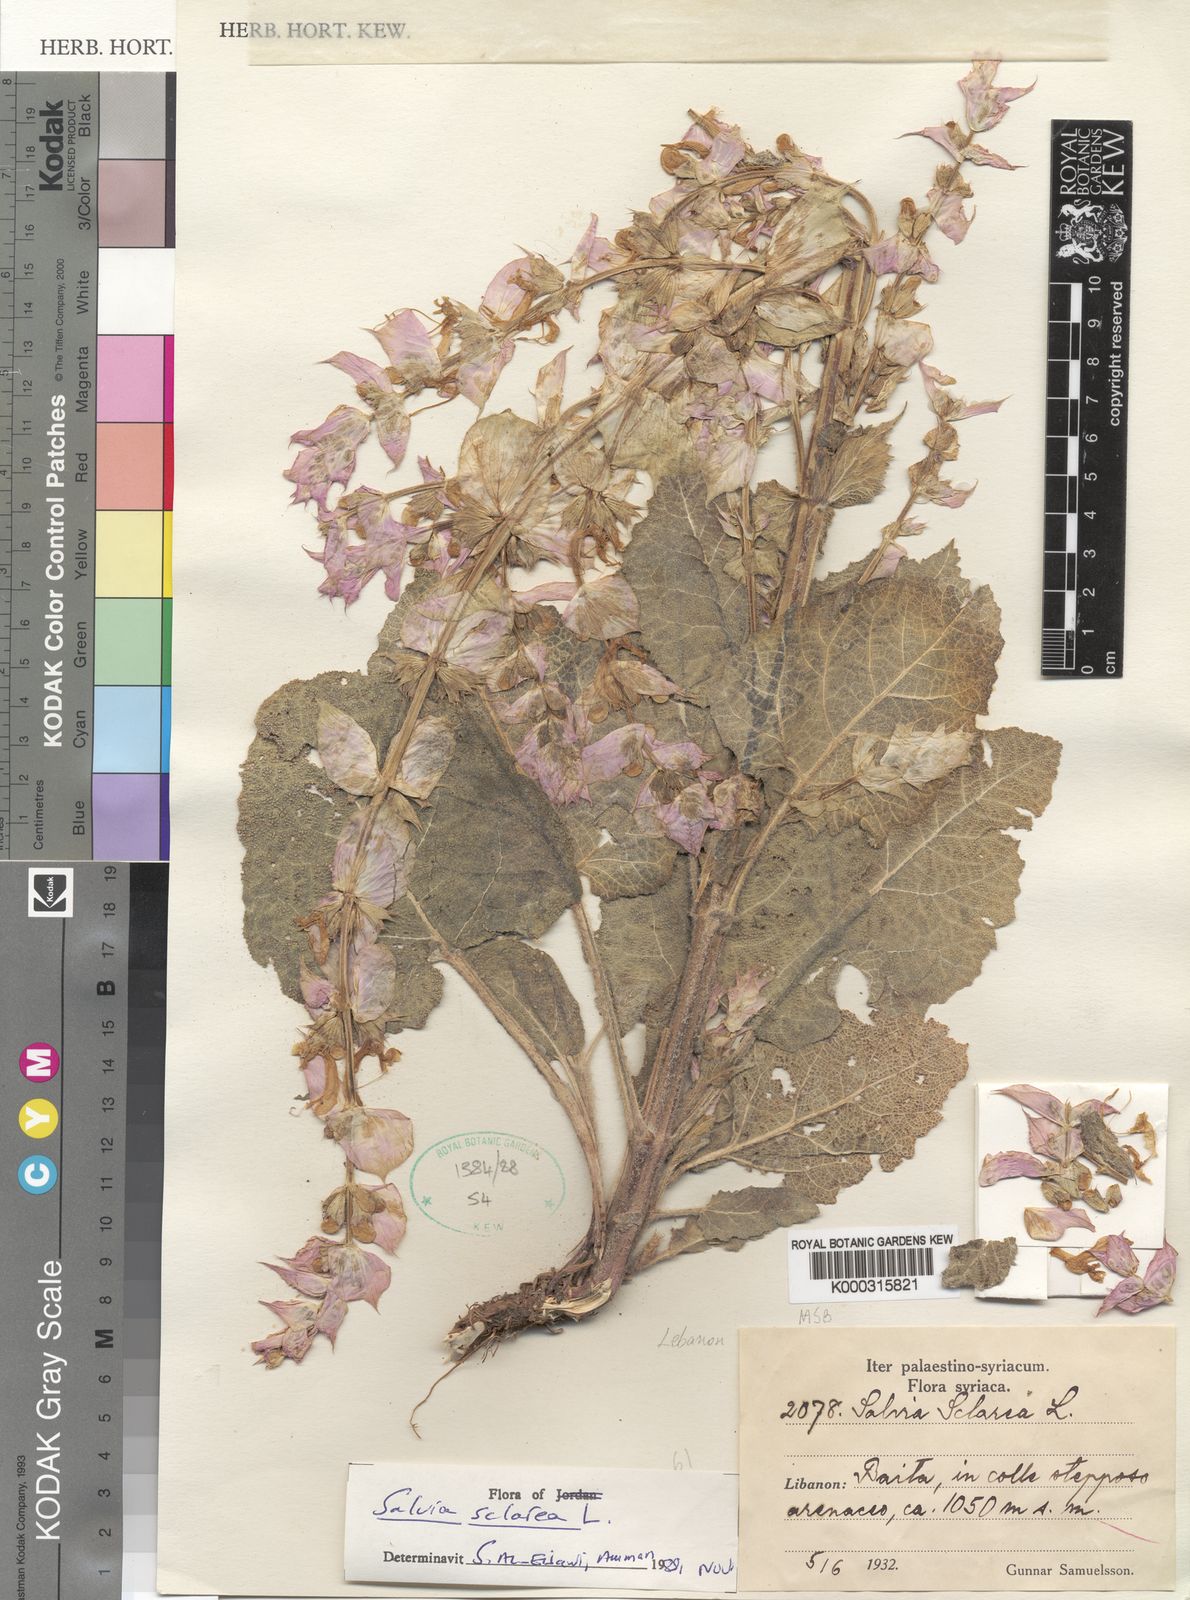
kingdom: Plantae
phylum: Tracheophyta
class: Magnoliopsida
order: Lamiales
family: Lamiaceae
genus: Salvia
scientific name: Salvia sclarea
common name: Clary
